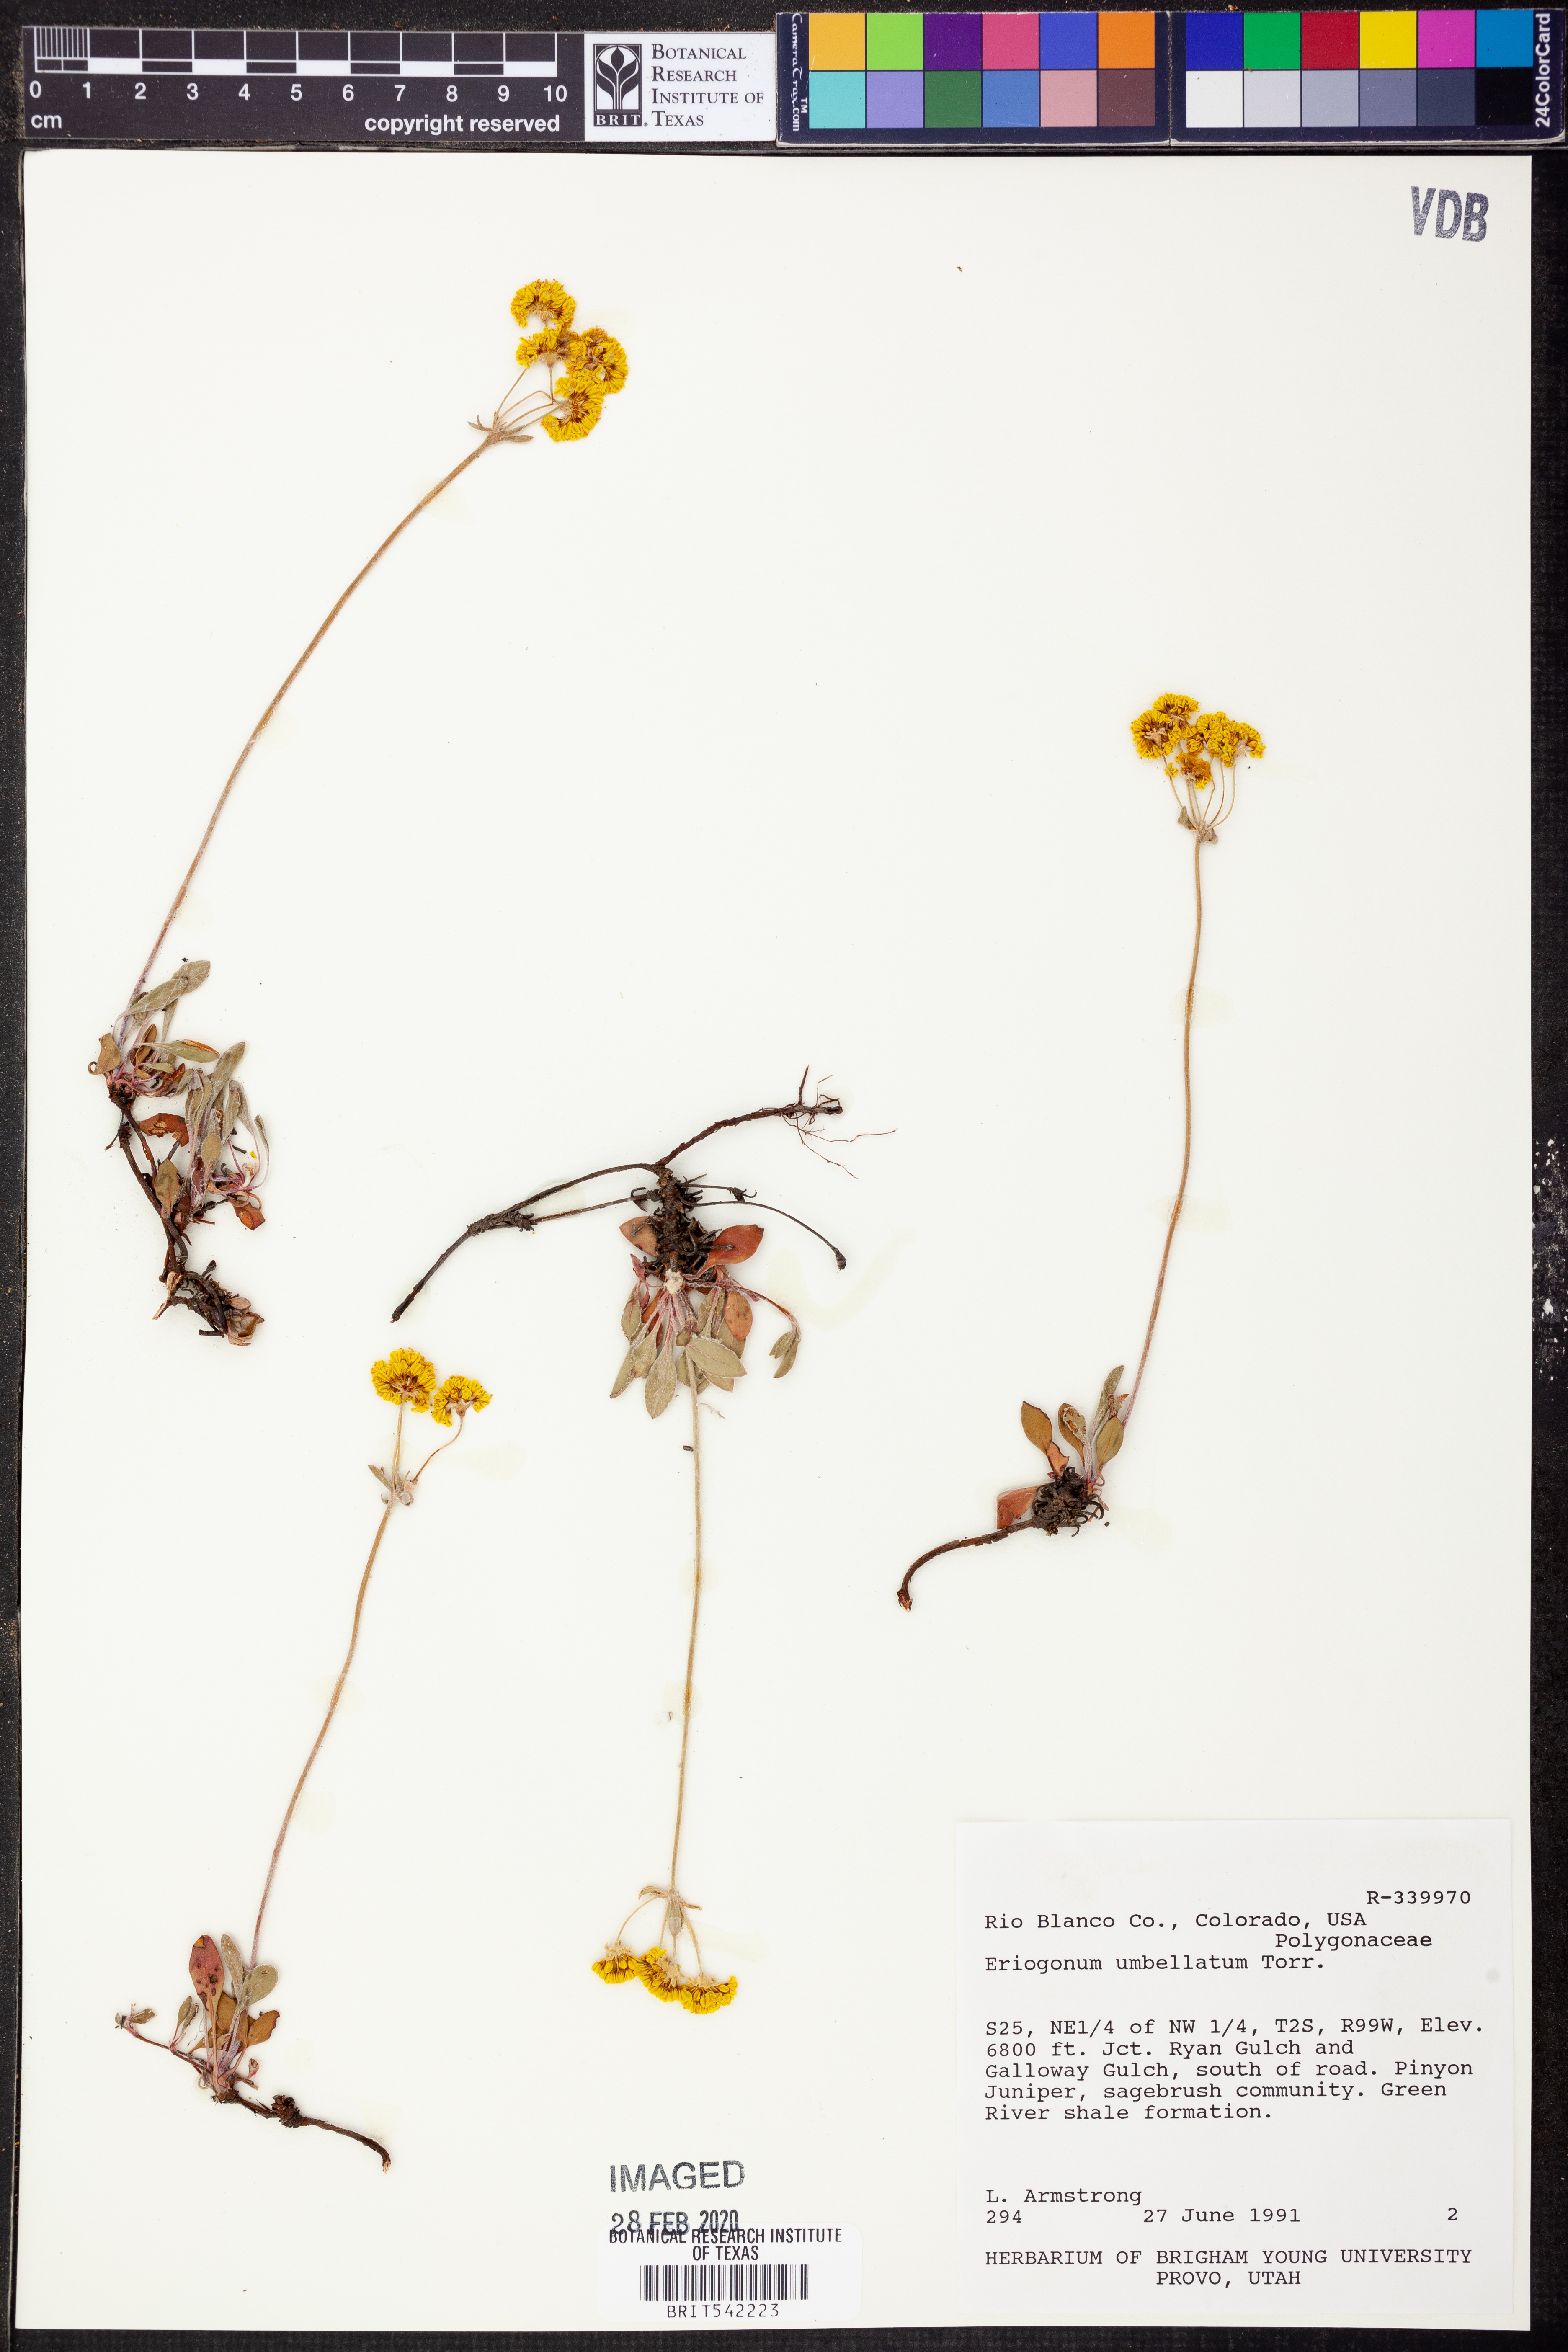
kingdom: Plantae
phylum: Tracheophyta
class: Magnoliopsida
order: Caryophyllales
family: Polygonaceae
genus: Eriogonum
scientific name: Eriogonum umbellatum
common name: Sulfur-buckwheat
